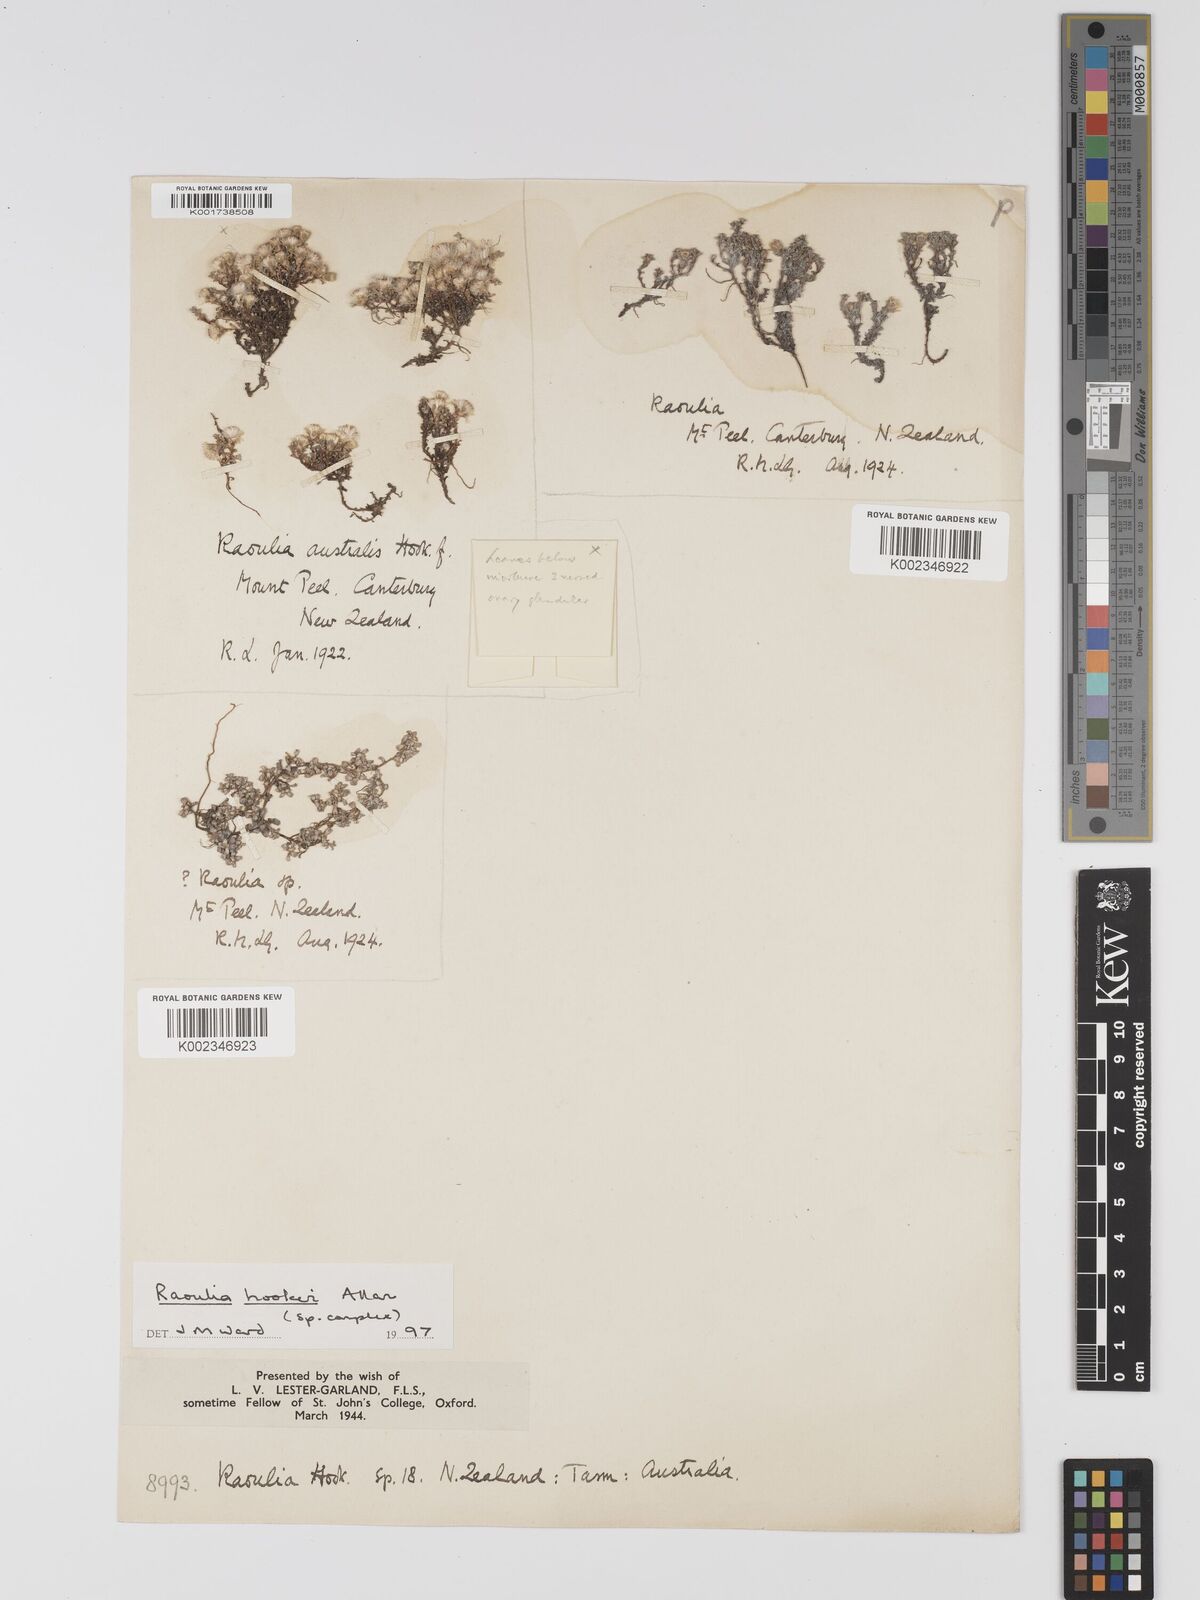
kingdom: Plantae
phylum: Tracheophyta
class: Magnoliopsida
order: Asterales
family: Asteraceae
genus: Raoulia
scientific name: Raoulia hookeri
